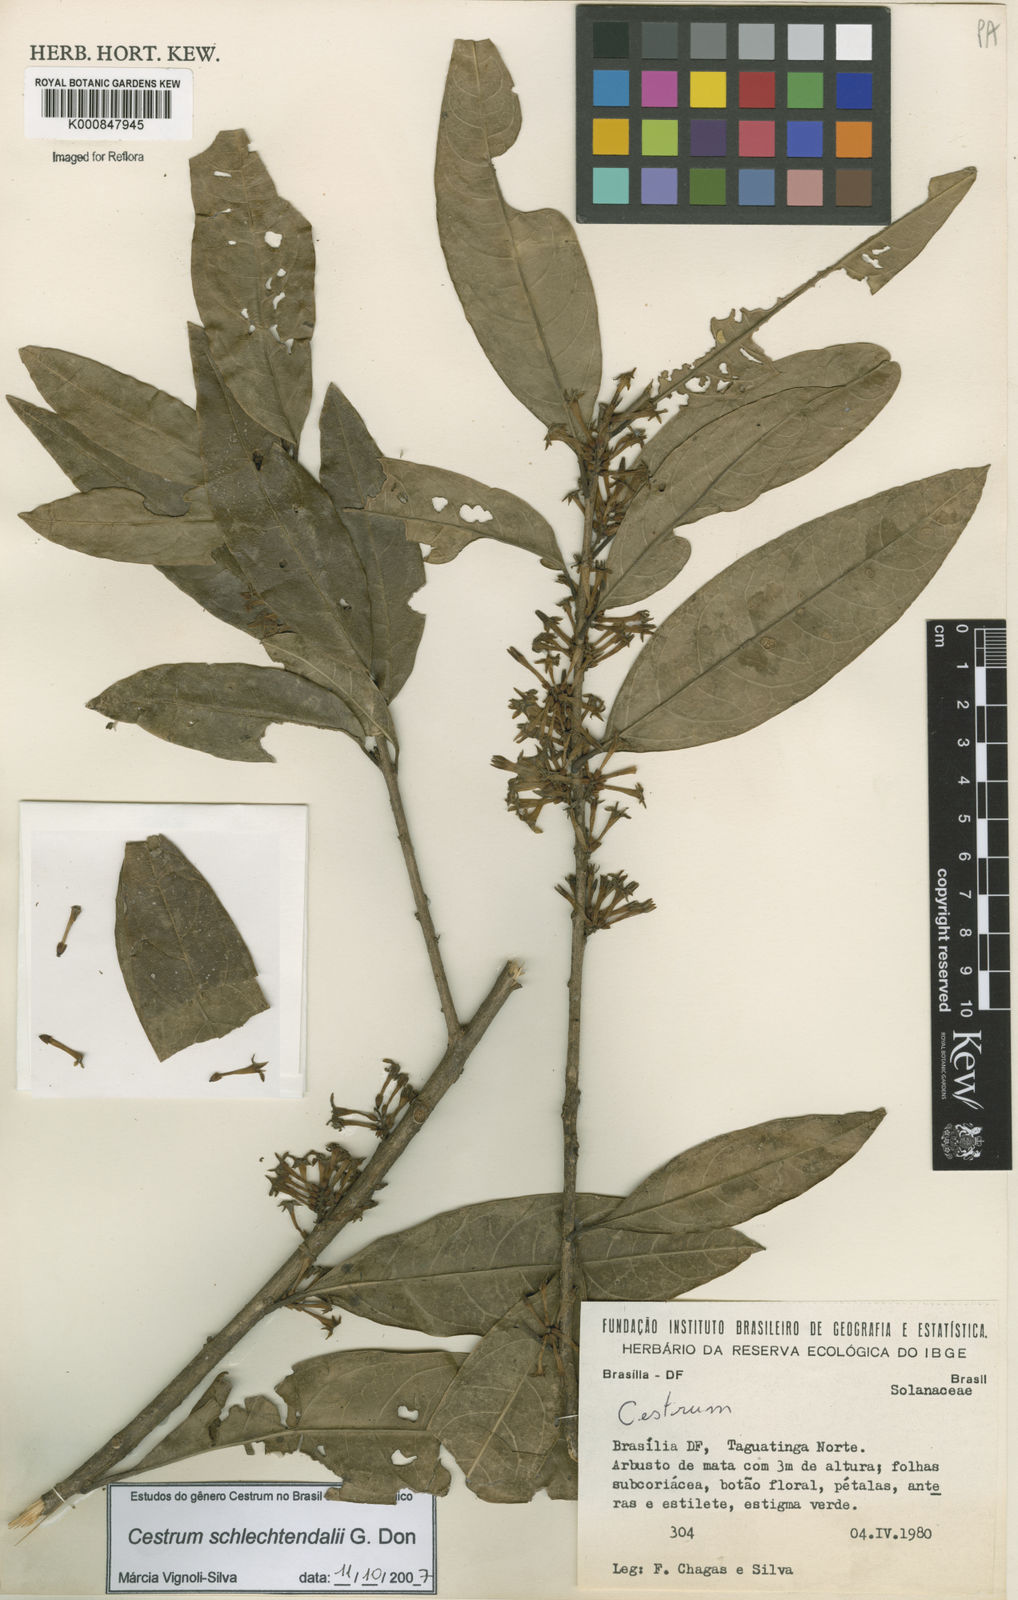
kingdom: Plantae
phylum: Tracheophyta
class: Magnoliopsida
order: Solanales
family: Solanaceae
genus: Cestrum
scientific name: Cestrum schlechtendalii
